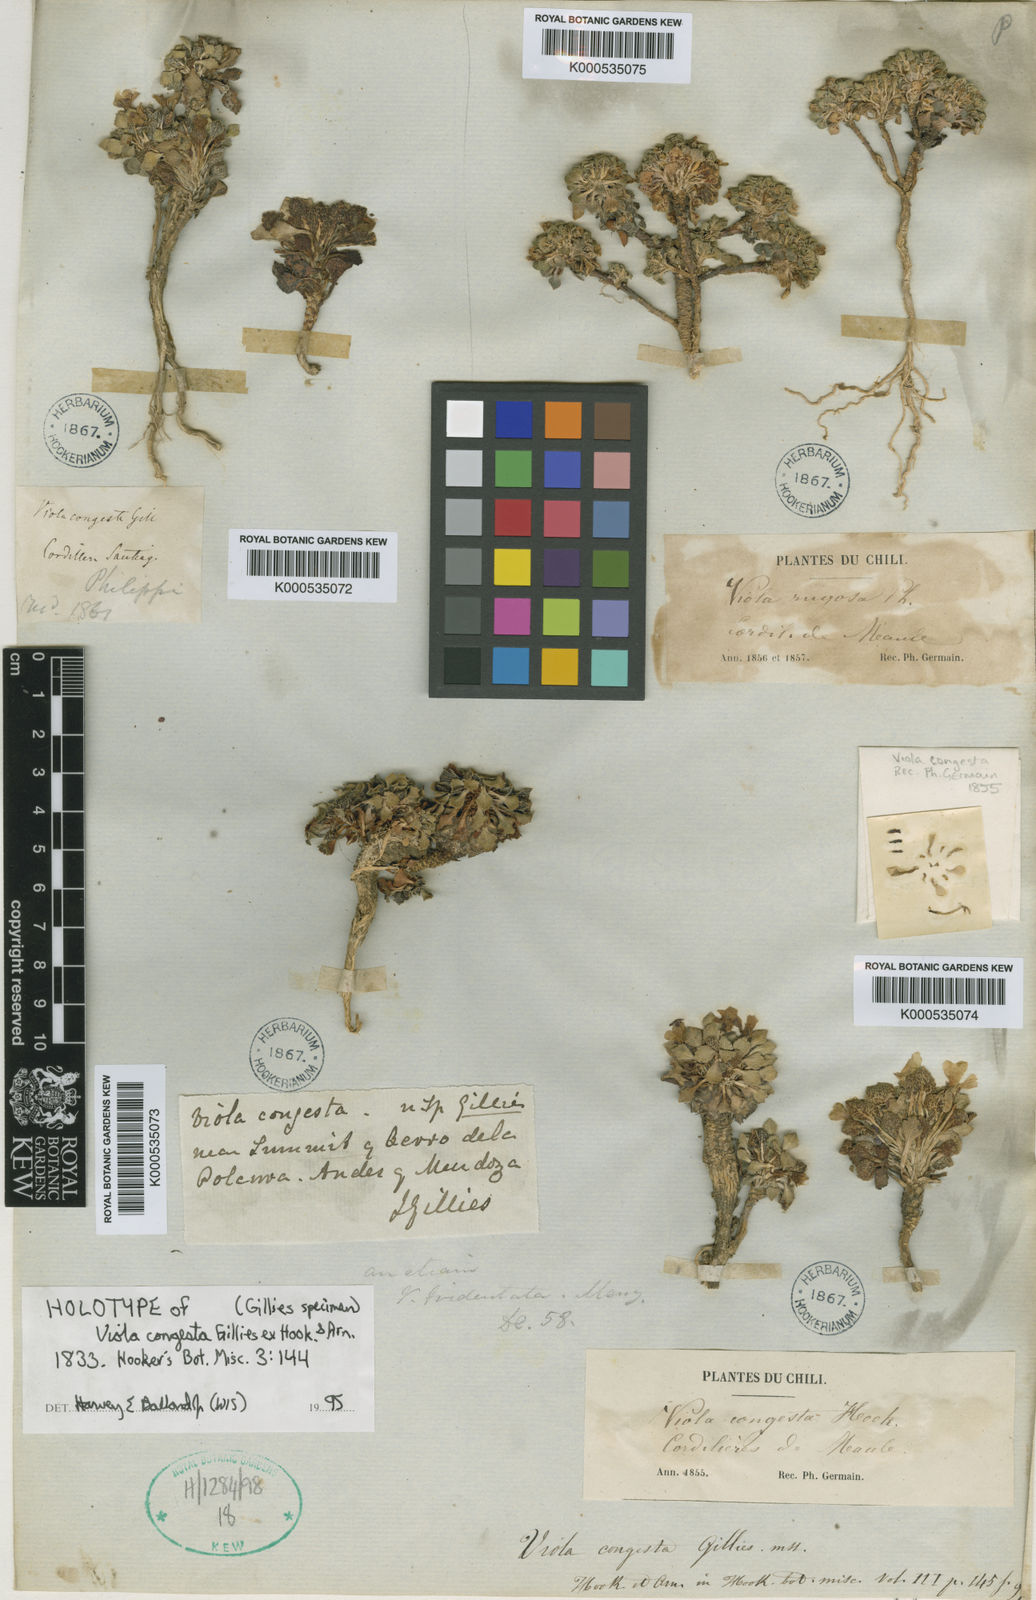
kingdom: Plantae
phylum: Tracheophyta
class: Magnoliopsida
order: Malpighiales
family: Violaceae
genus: Viola
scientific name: Viola
